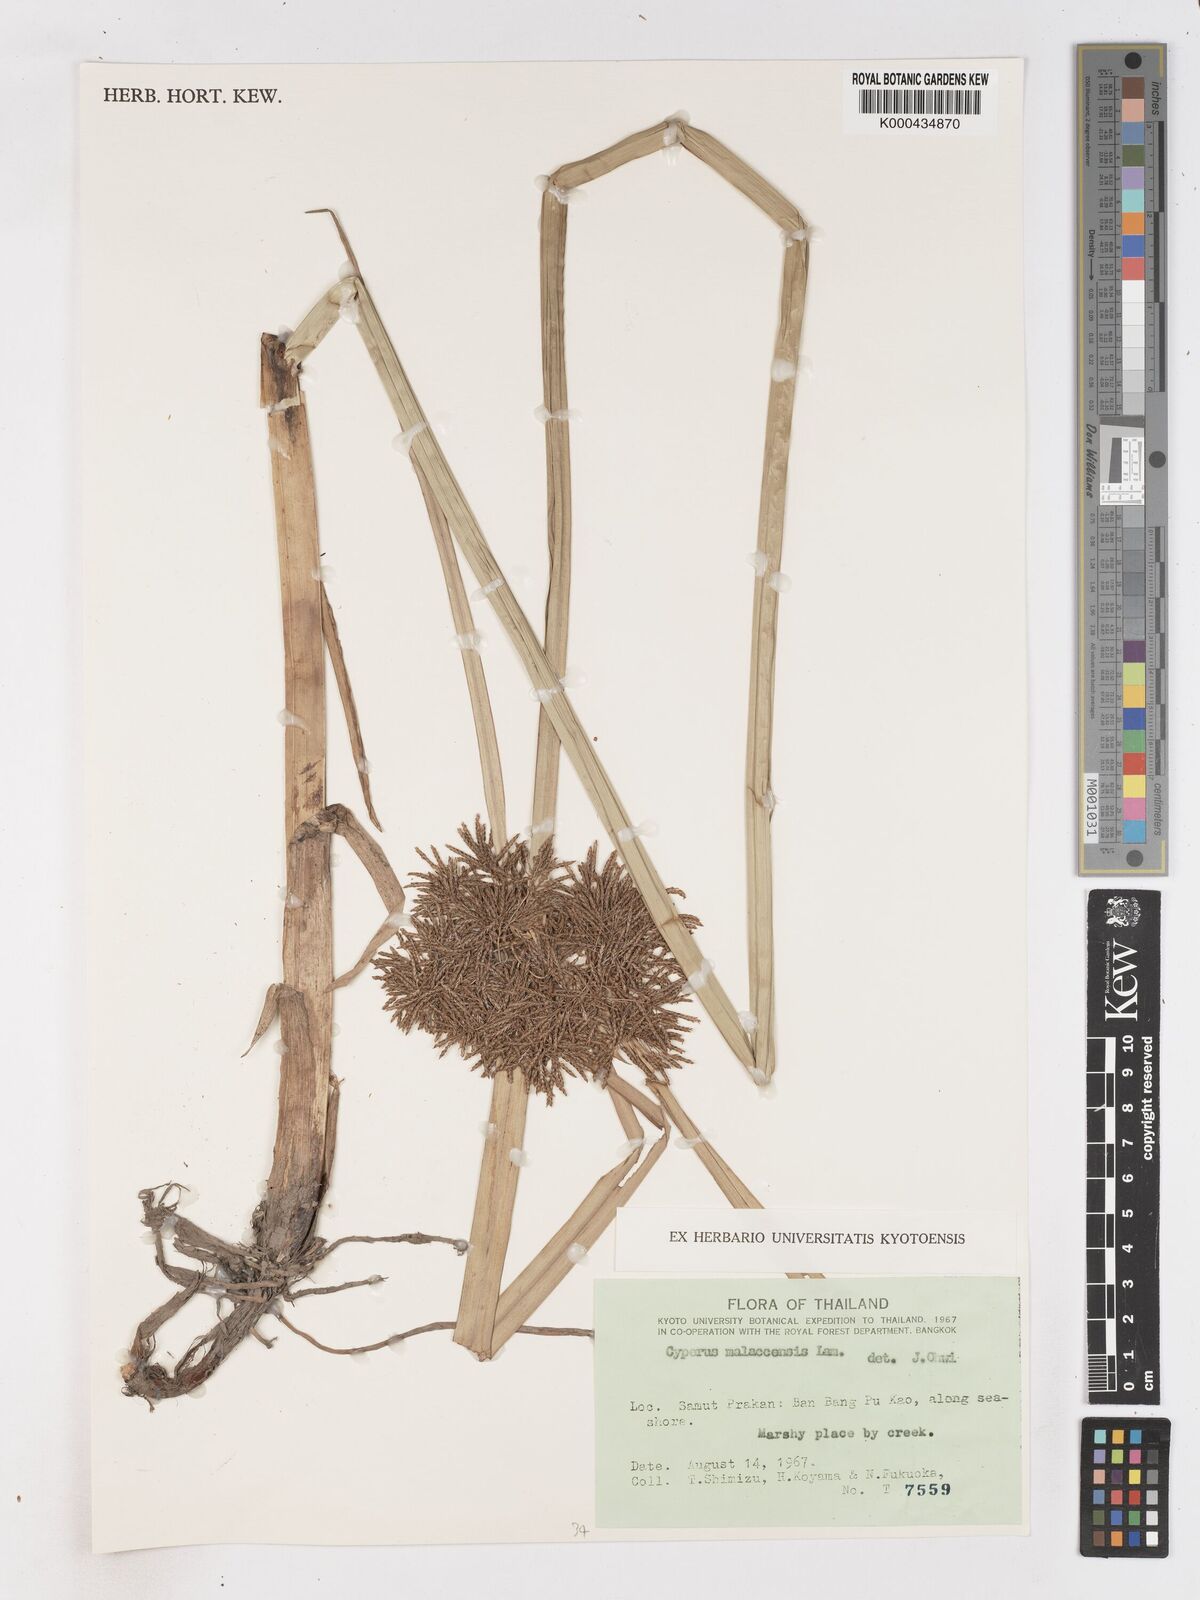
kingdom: Plantae
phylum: Tracheophyta
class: Liliopsida
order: Poales
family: Cyperaceae
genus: Cyperus
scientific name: Cyperus malaccensis
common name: Shichito matgrass
